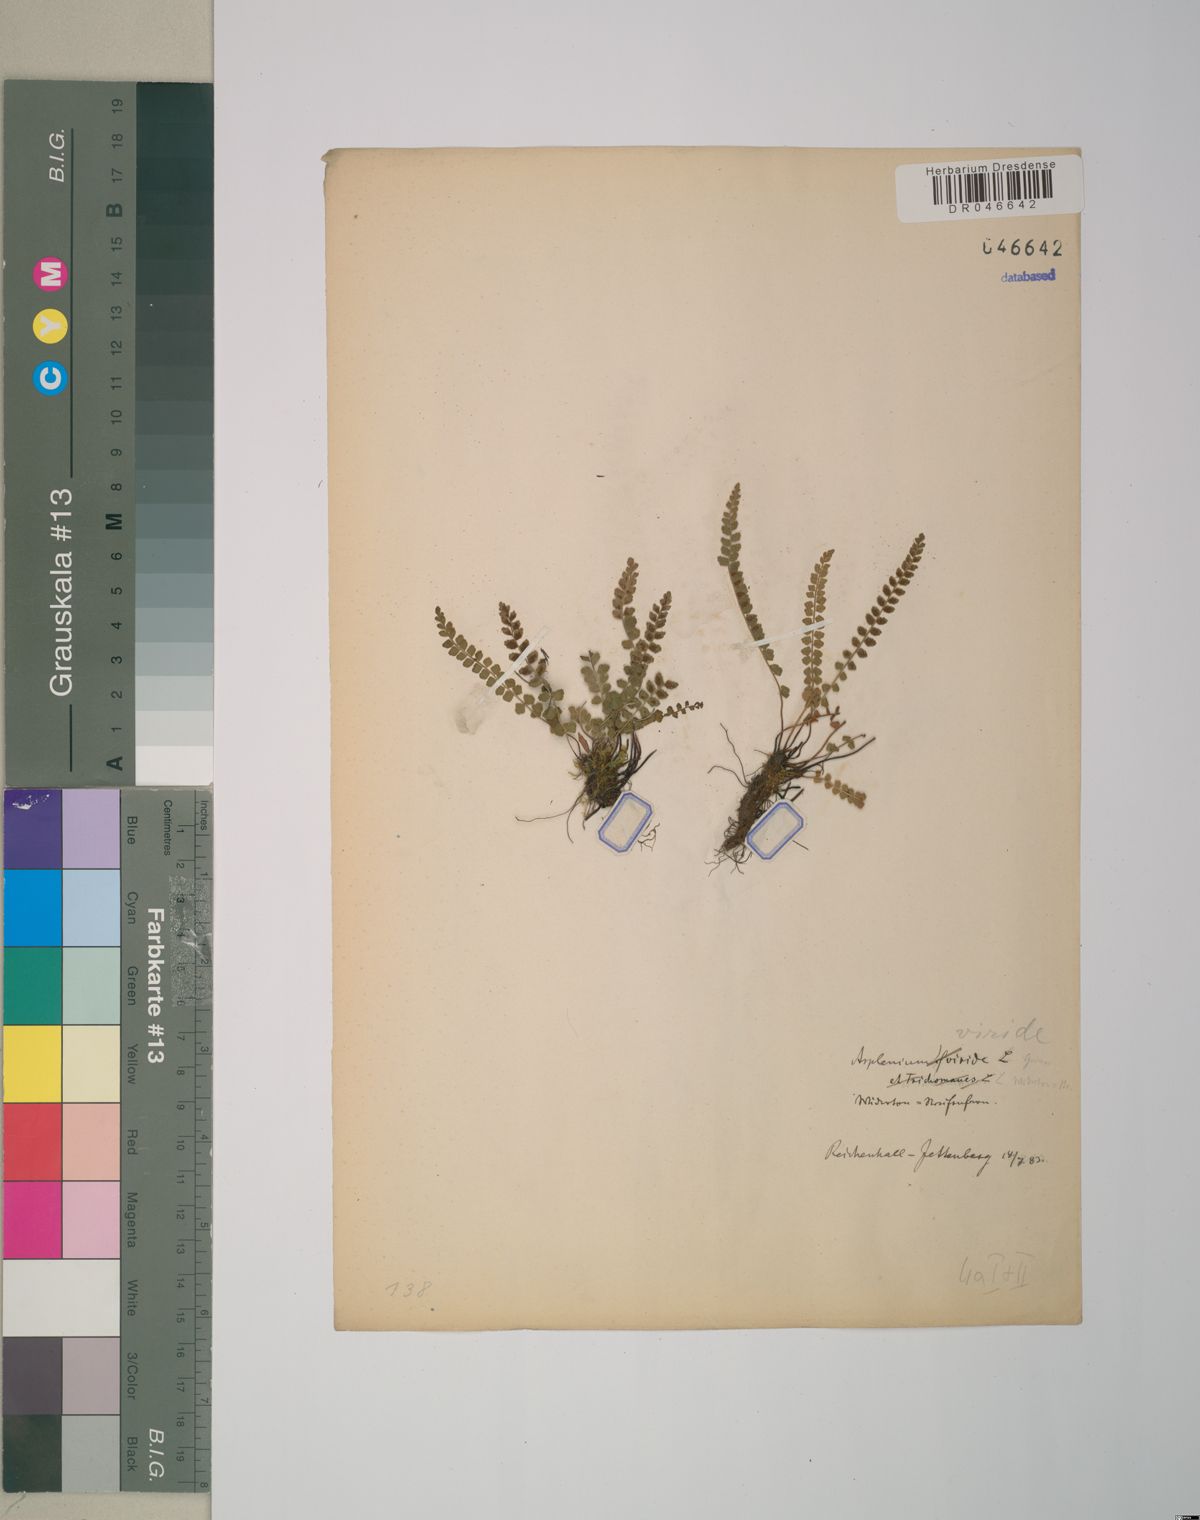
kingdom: Plantae
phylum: Tracheophyta
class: Polypodiopsida
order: Polypodiales
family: Aspleniaceae
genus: Asplenium
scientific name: Asplenium viride
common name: Green spleenwort
